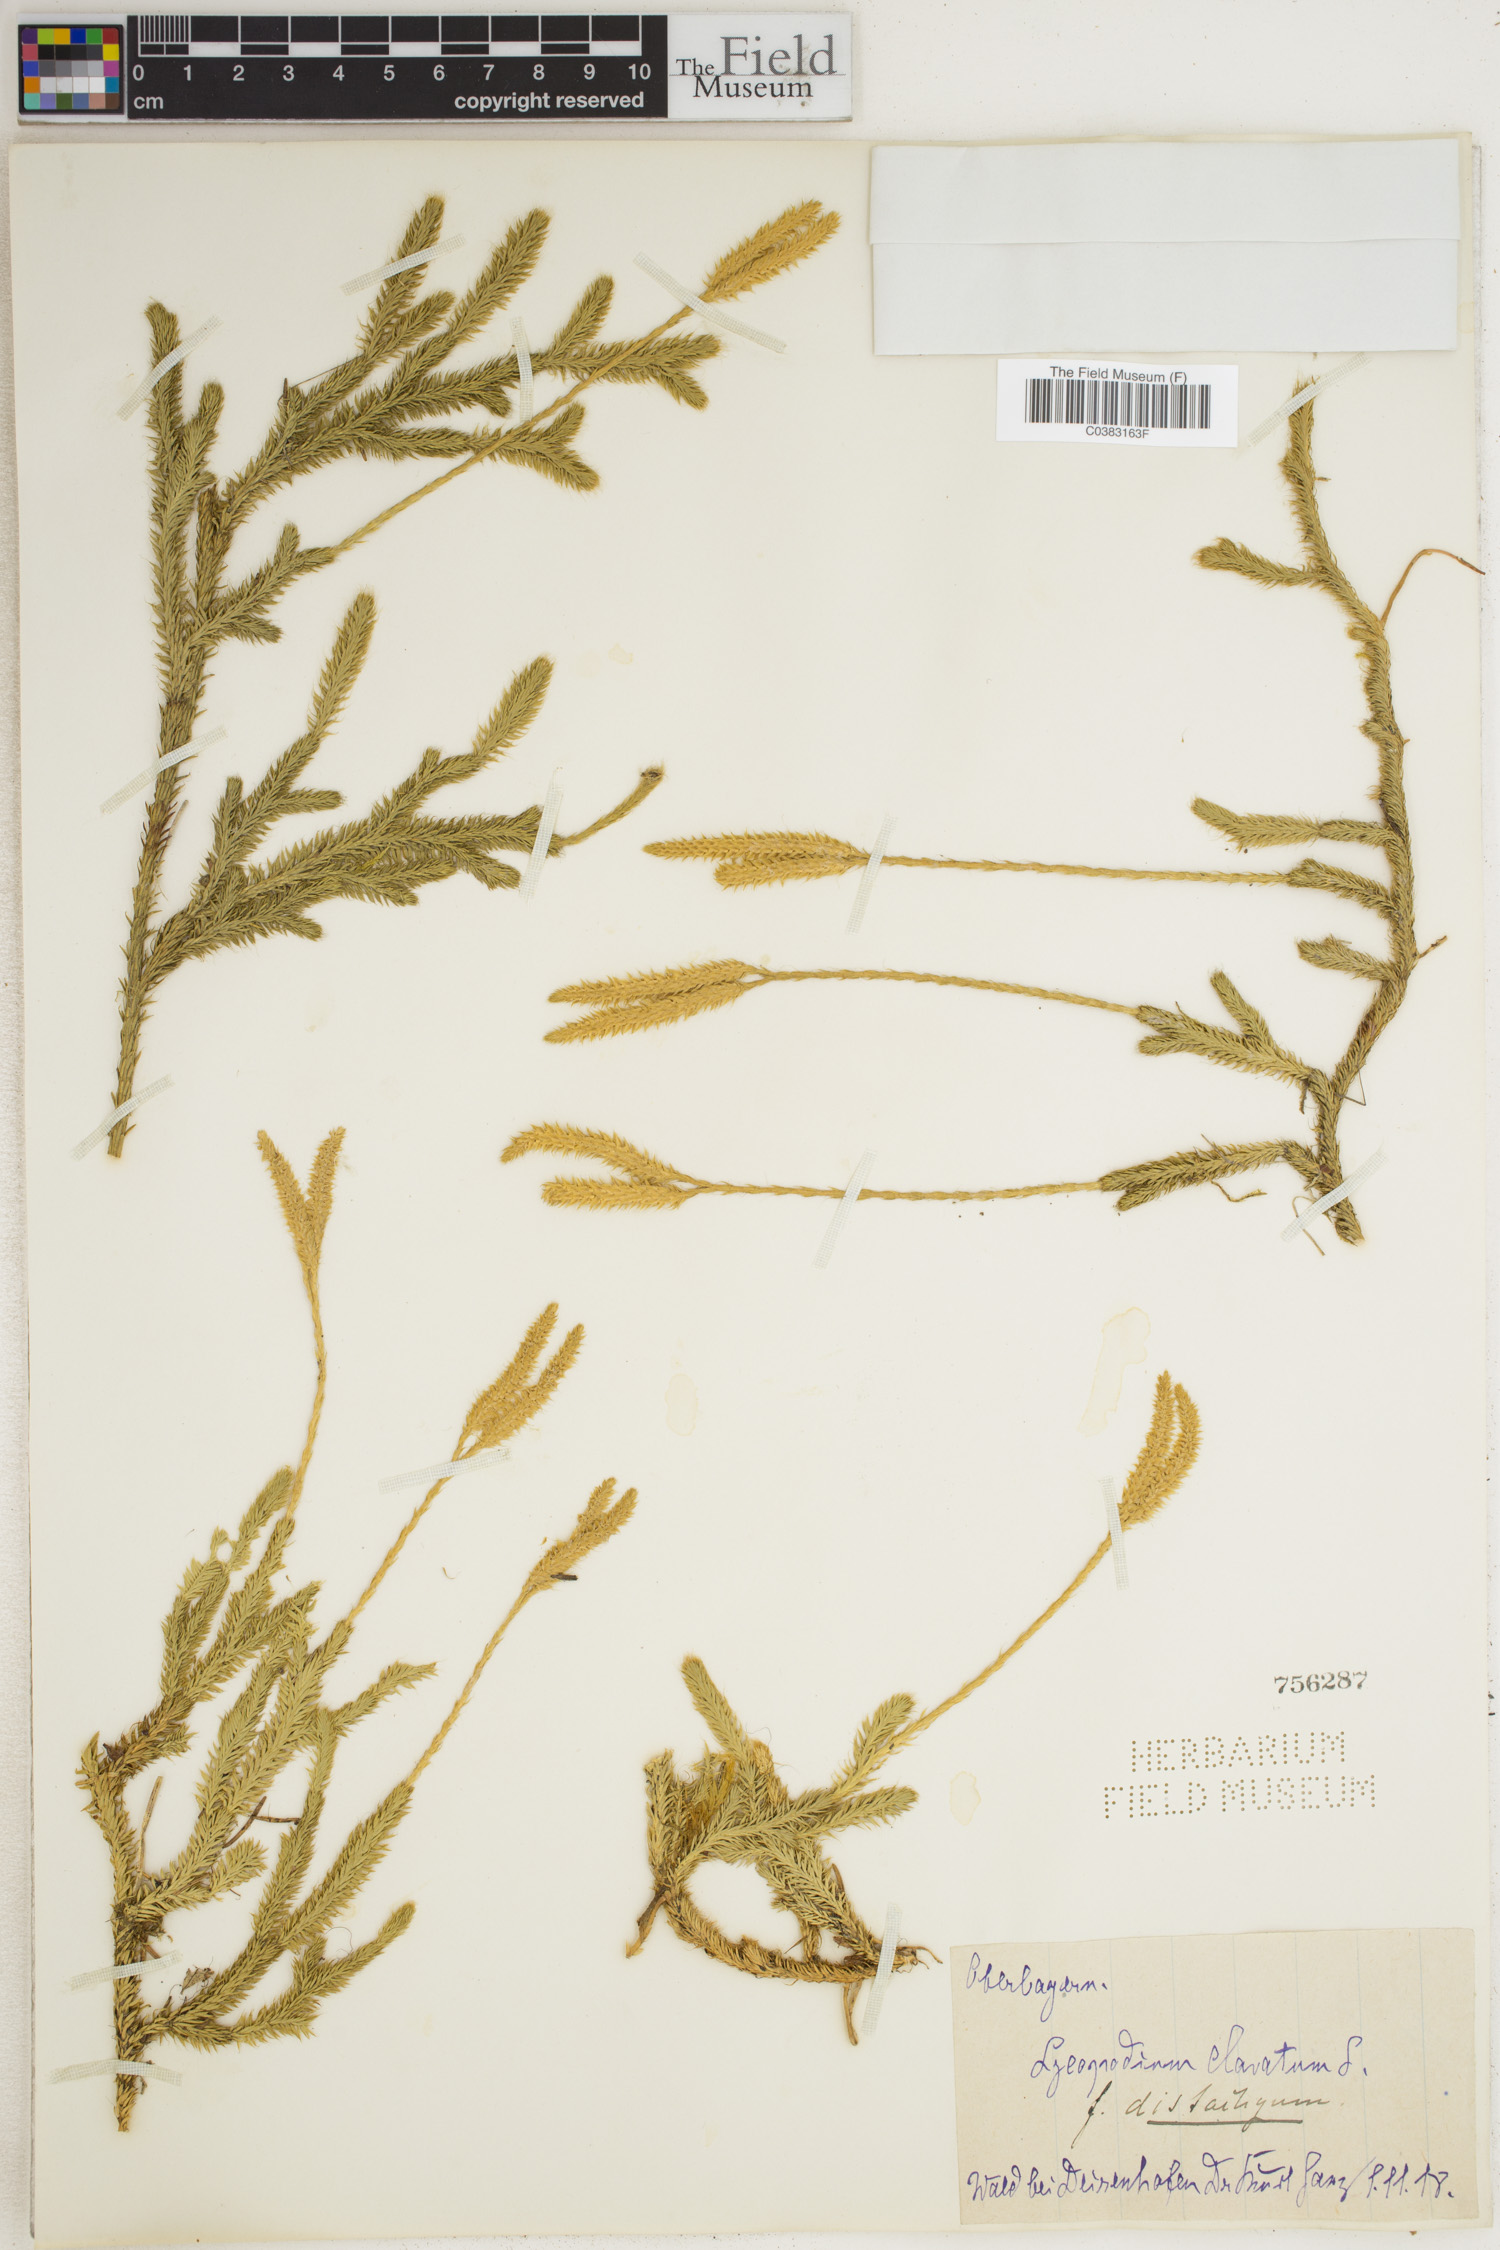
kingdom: Plantae
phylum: Tracheophyta
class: Lycopodiopsida
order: Lycopodiales
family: Lycopodiaceae
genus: Lycopodium
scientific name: Lycopodium clavatum
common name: Stag's-horn clubmoss
